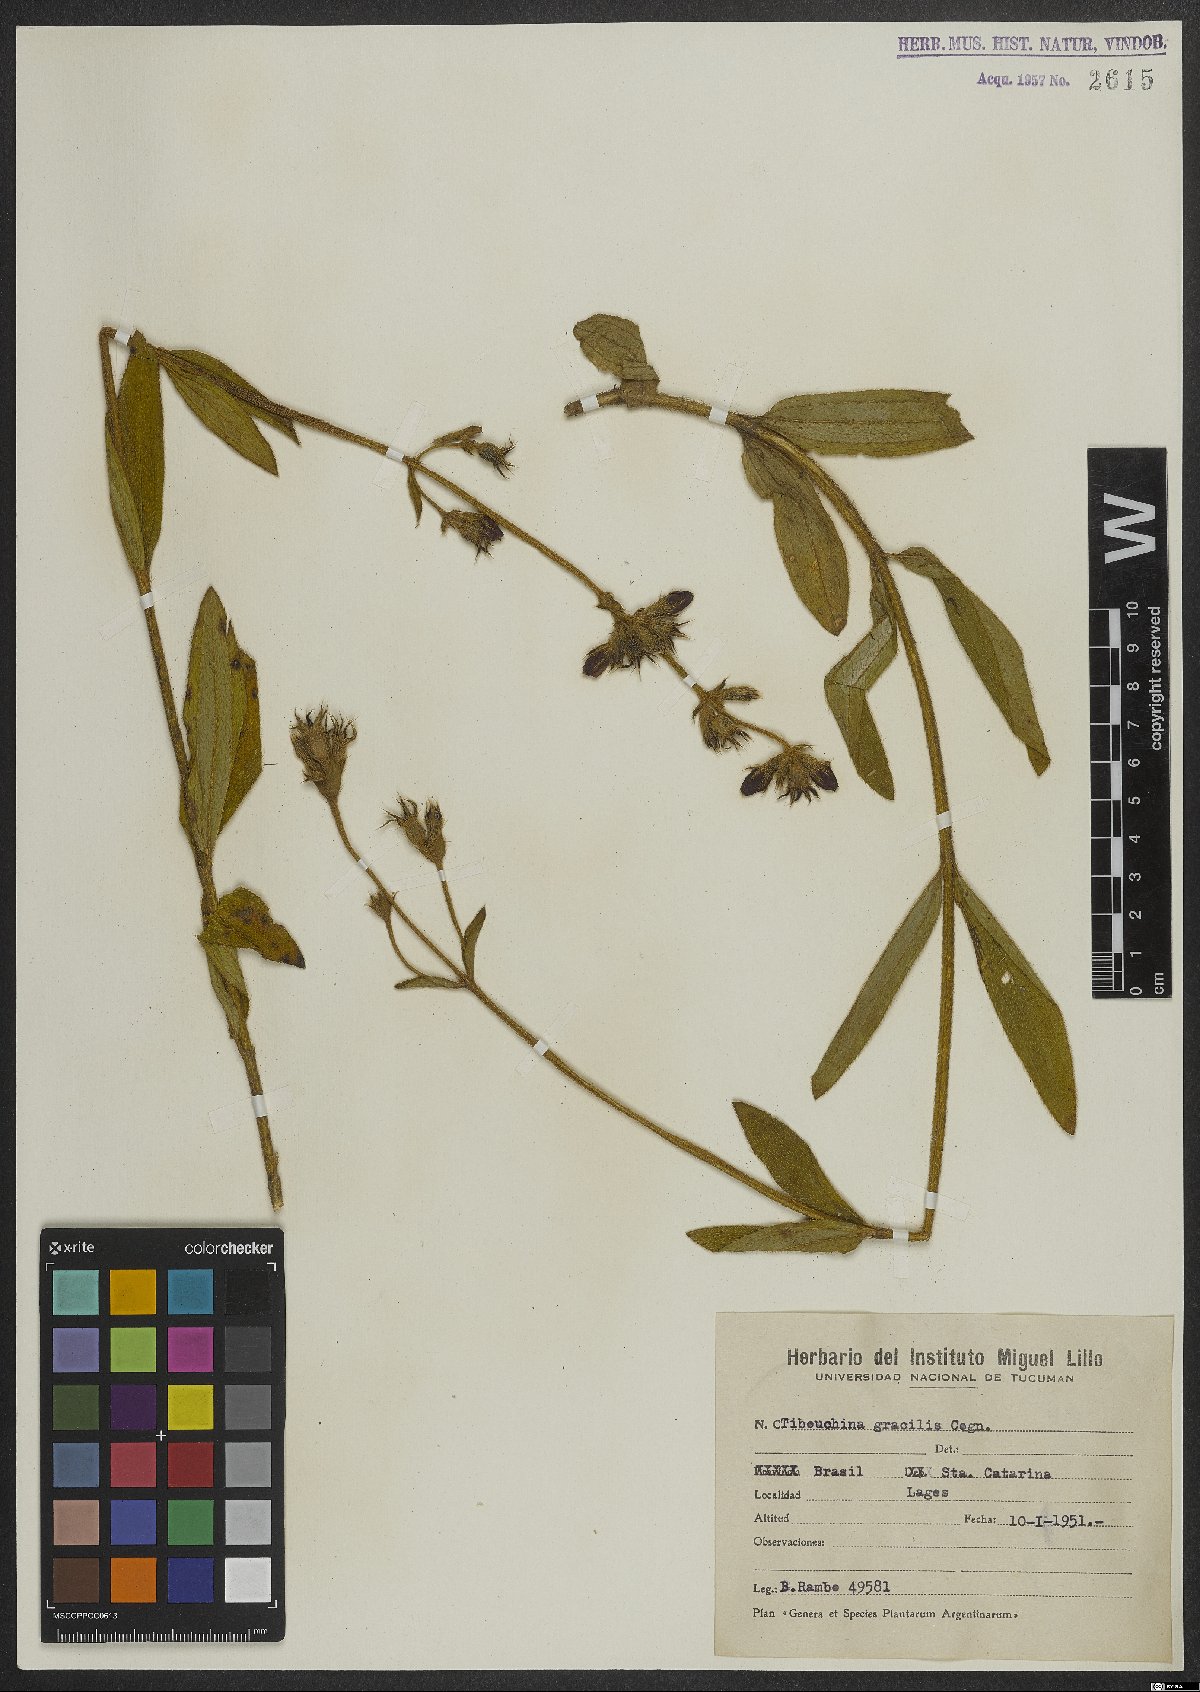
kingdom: Plantae
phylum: Tracheophyta
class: Magnoliopsida
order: Myrtales
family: Melastomataceae
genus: Chaetogastra
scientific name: Chaetogastra gracilis
